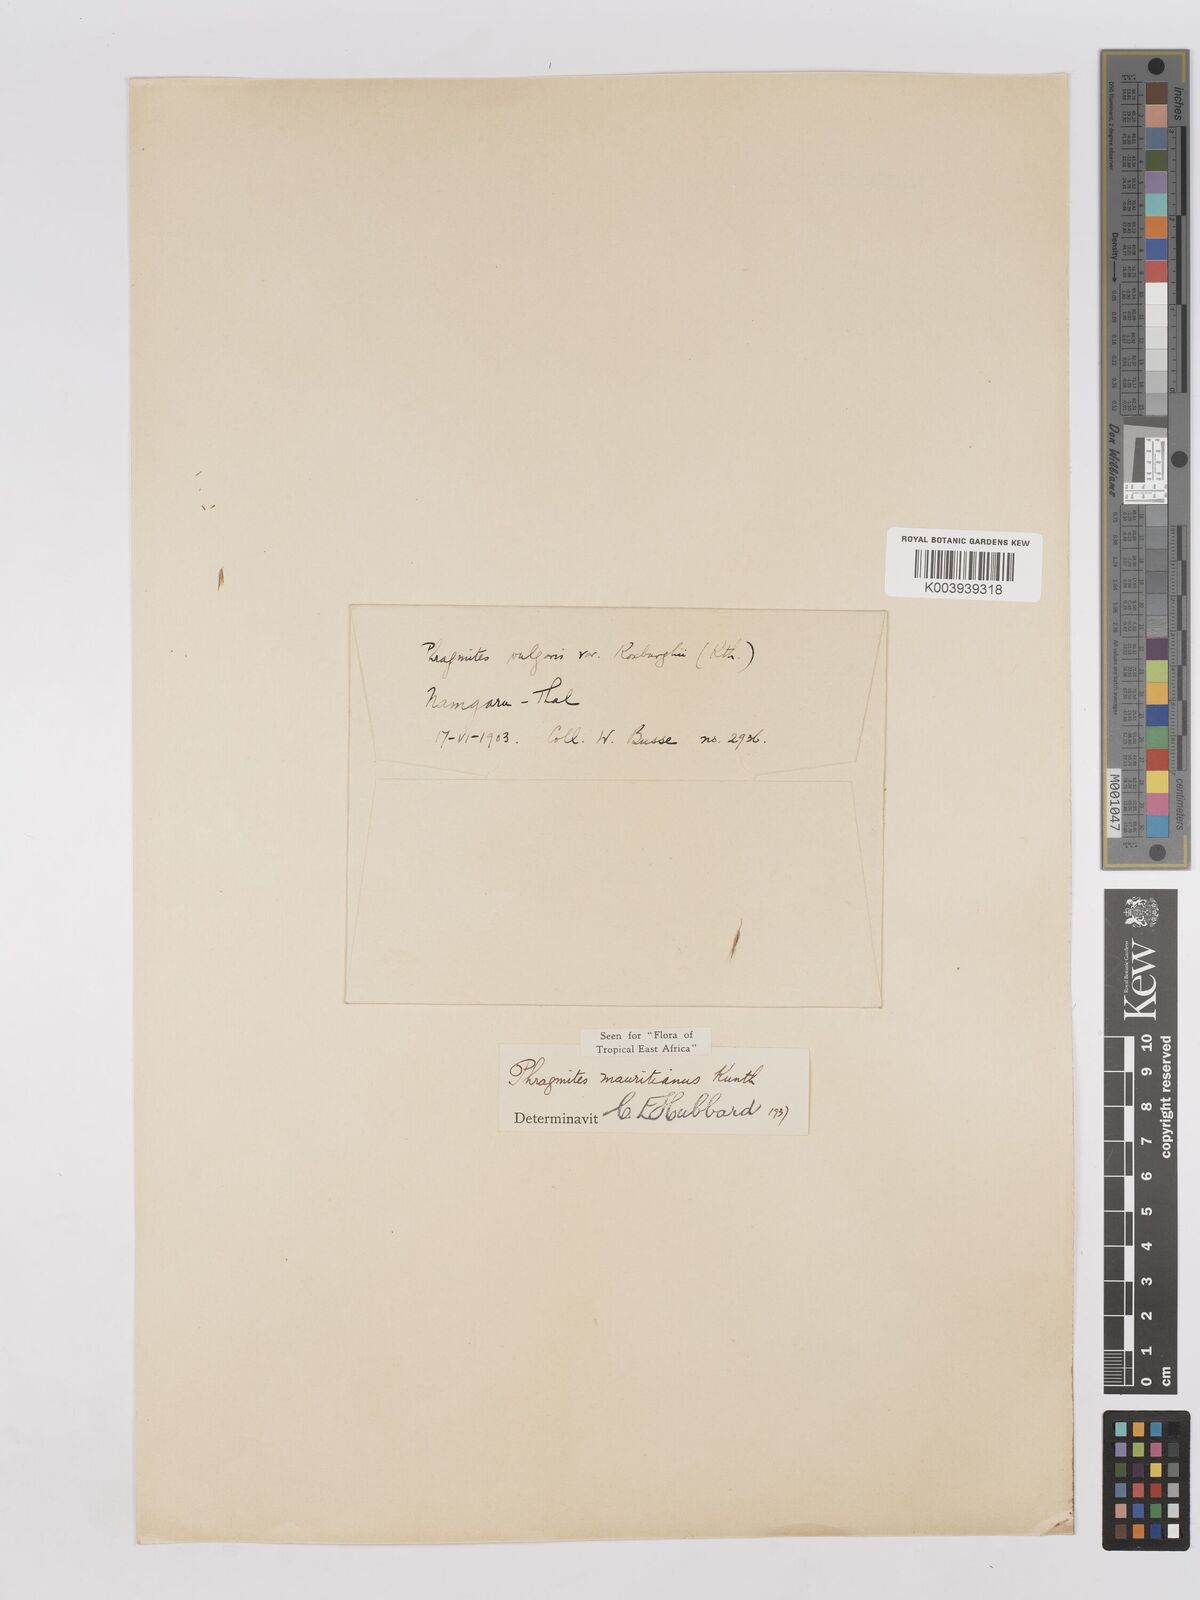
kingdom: Plantae
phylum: Tracheophyta
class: Liliopsida
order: Poales
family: Poaceae
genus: Phragmites
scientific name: Phragmites mauritianus
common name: Reed grass
